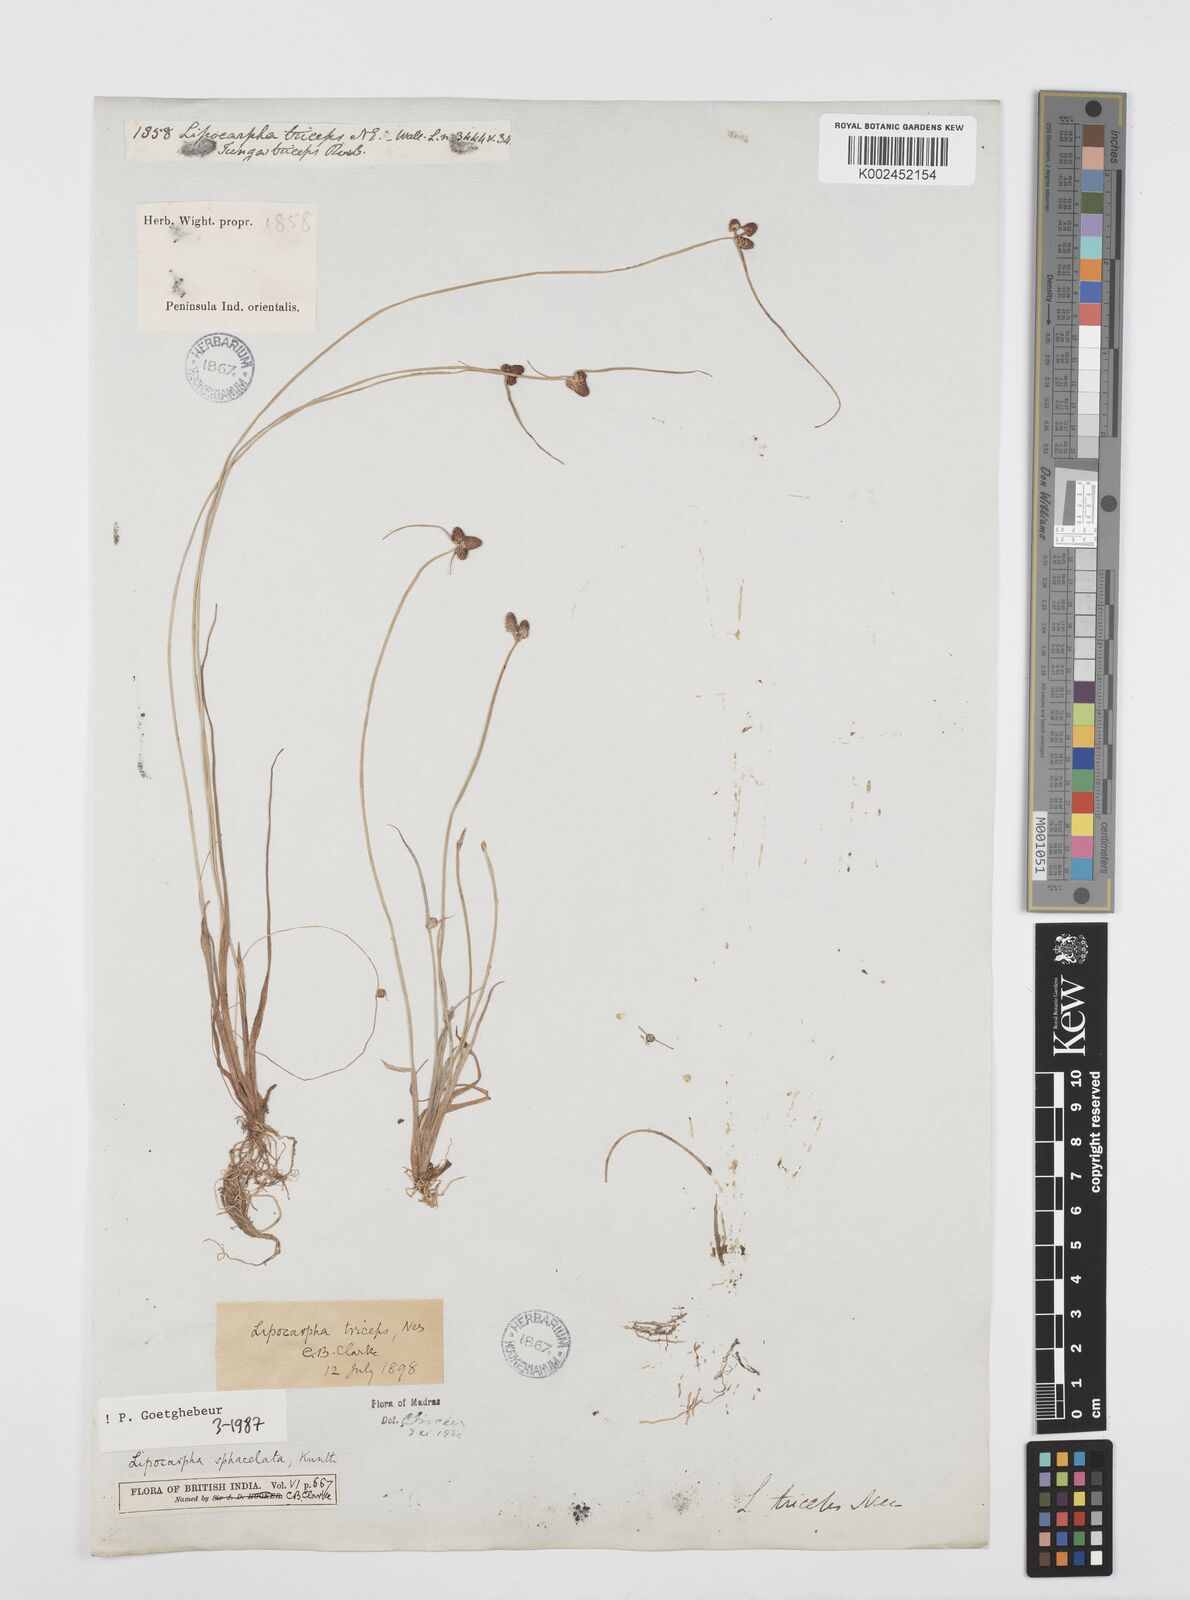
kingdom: Plantae
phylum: Tracheophyta
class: Liliopsida
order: Poales
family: Cyperaceae
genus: Cyperus
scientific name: Cyperus sphacelatus
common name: Roadside flatsedge
